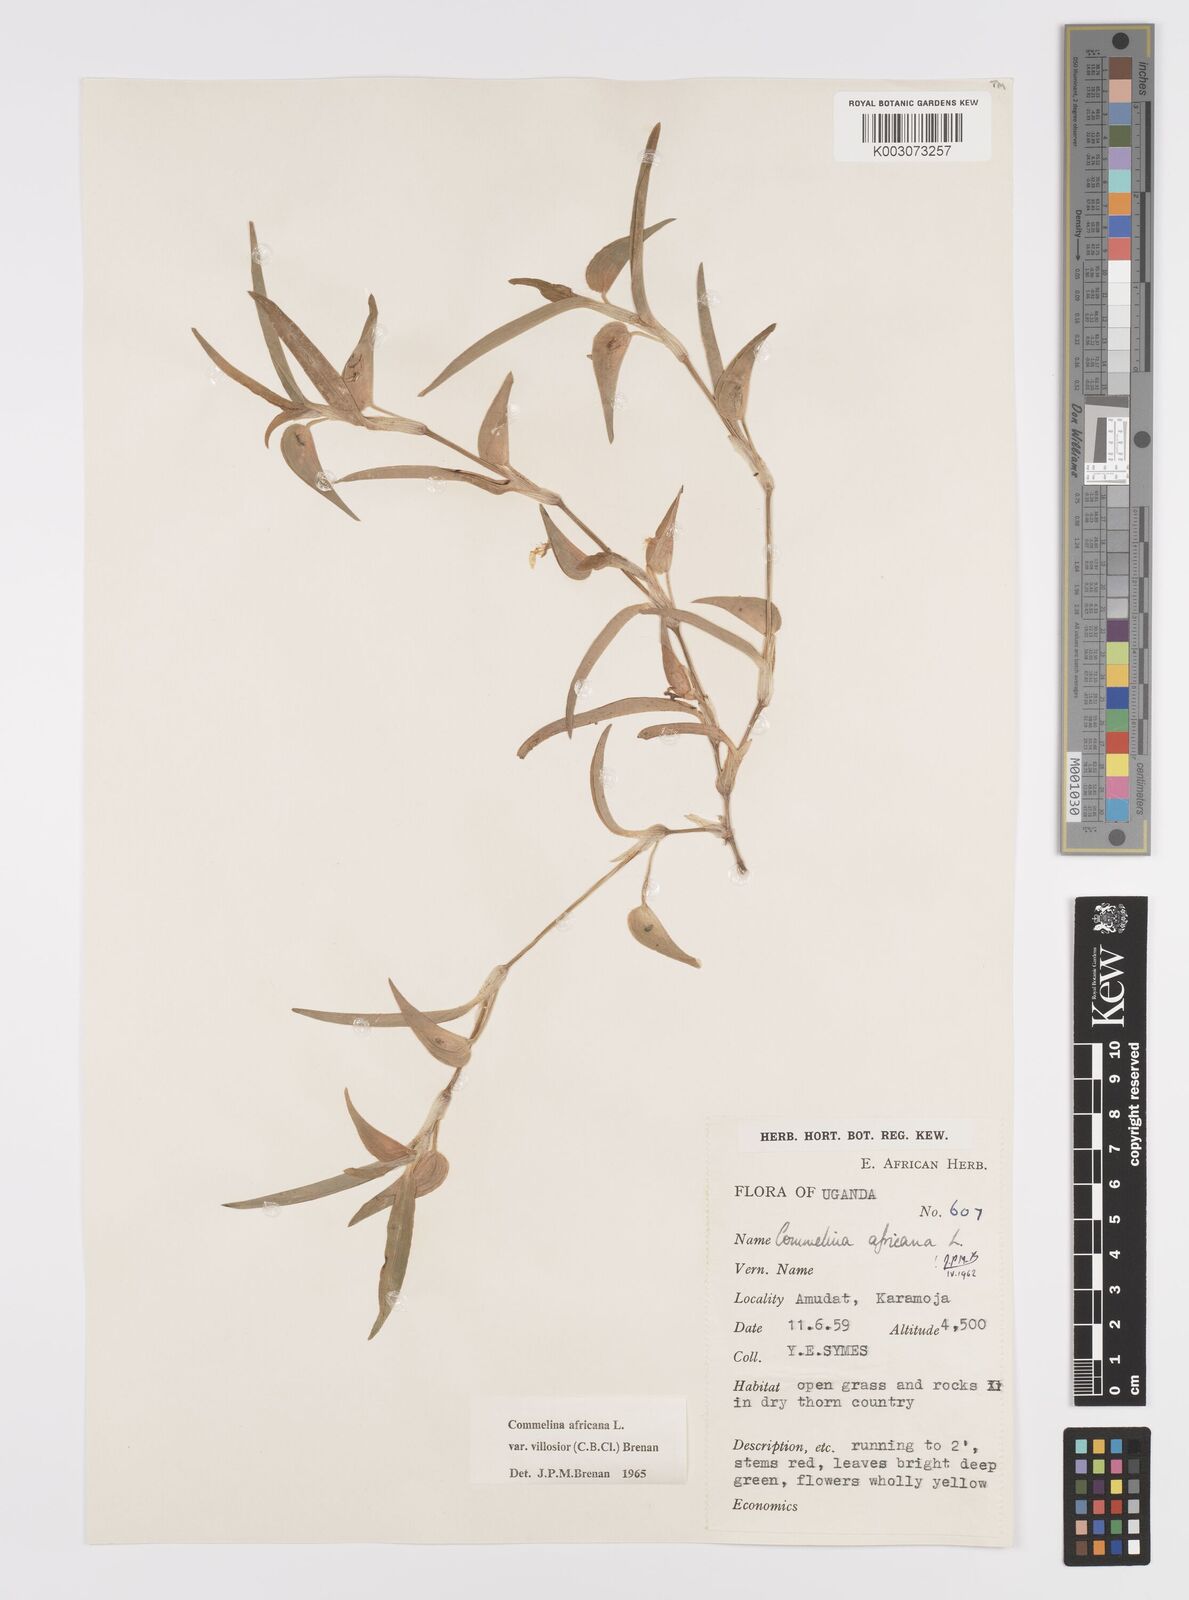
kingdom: Plantae
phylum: Tracheophyta
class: Liliopsida
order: Commelinales
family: Commelinaceae
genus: Commelina
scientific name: Commelina africana
